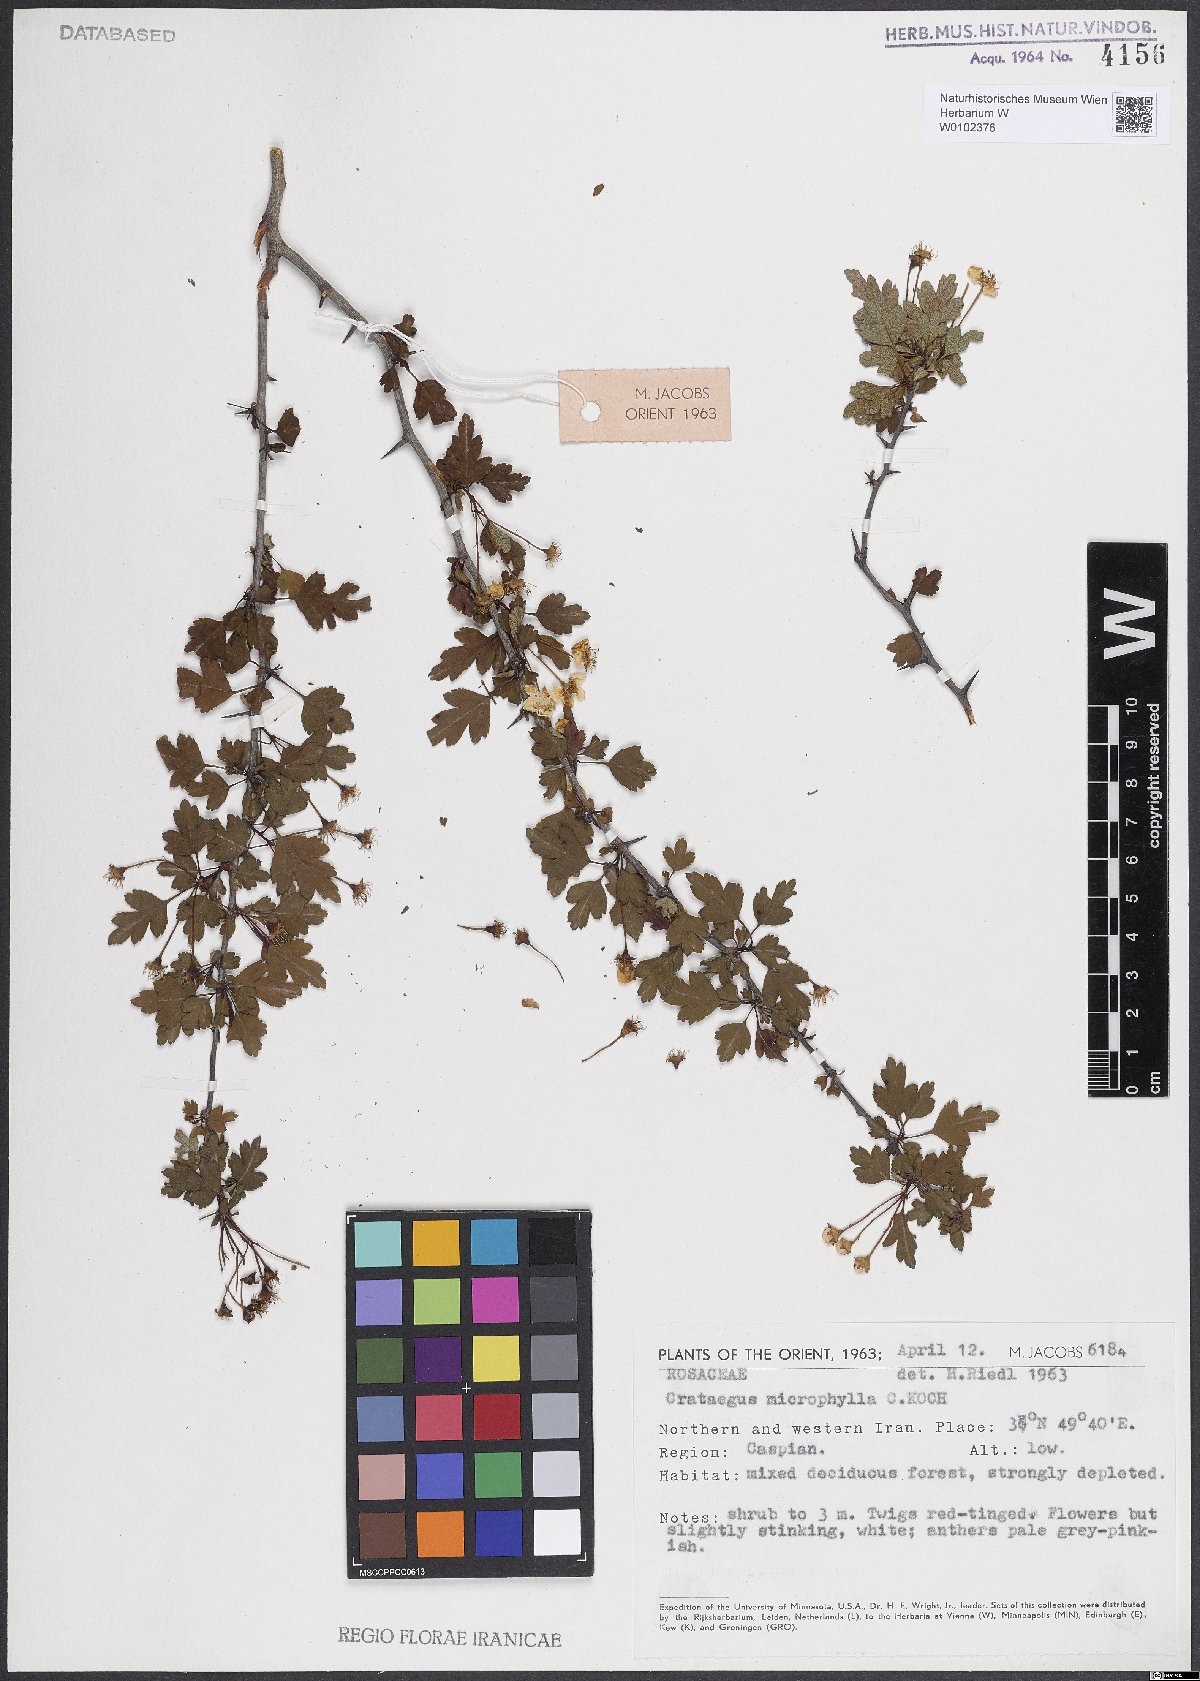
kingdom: Plantae
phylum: Tracheophyta
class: Magnoliopsida
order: Rosales
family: Rosaceae
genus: Crataegus
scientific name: Crataegus microphylla
